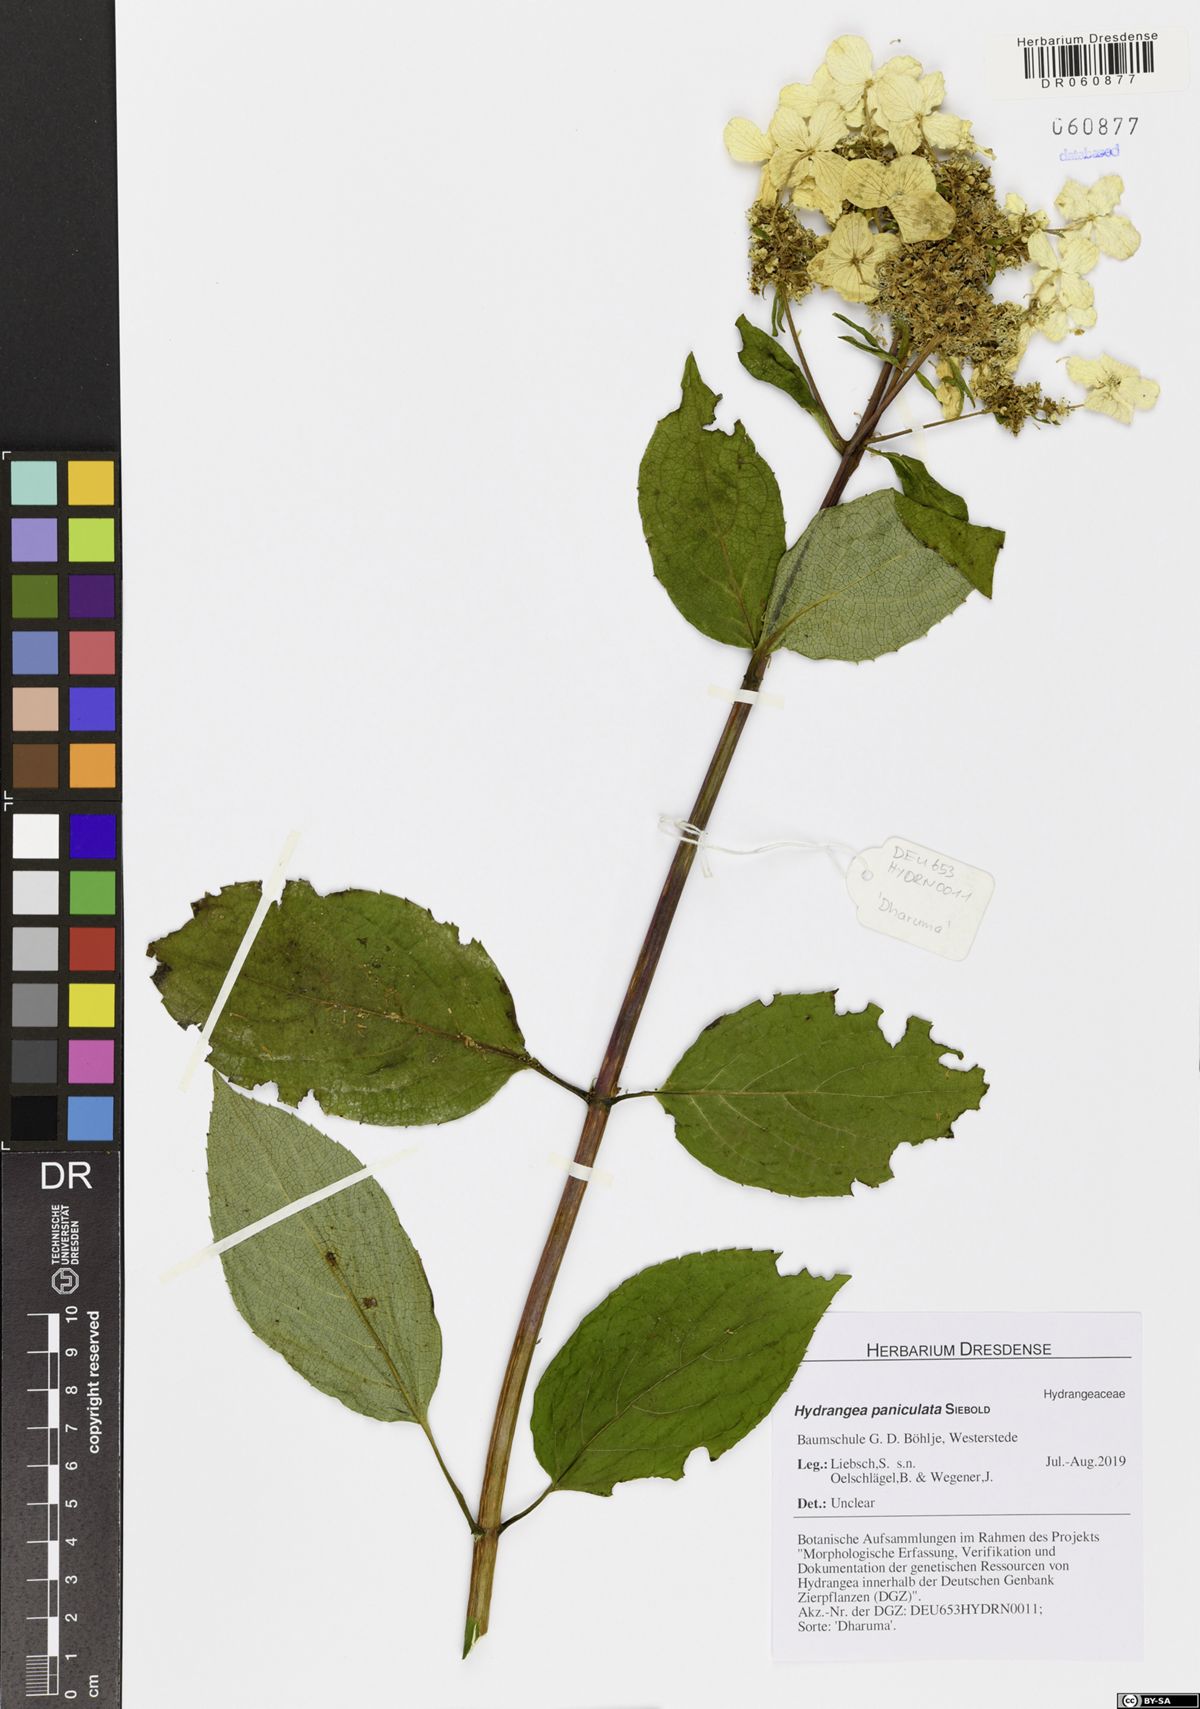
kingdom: Plantae
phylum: Tracheophyta
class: Magnoliopsida
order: Cornales
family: Hydrangeaceae
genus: Hydrangea
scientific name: Hydrangea paniculata
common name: Panicled hydrangea
